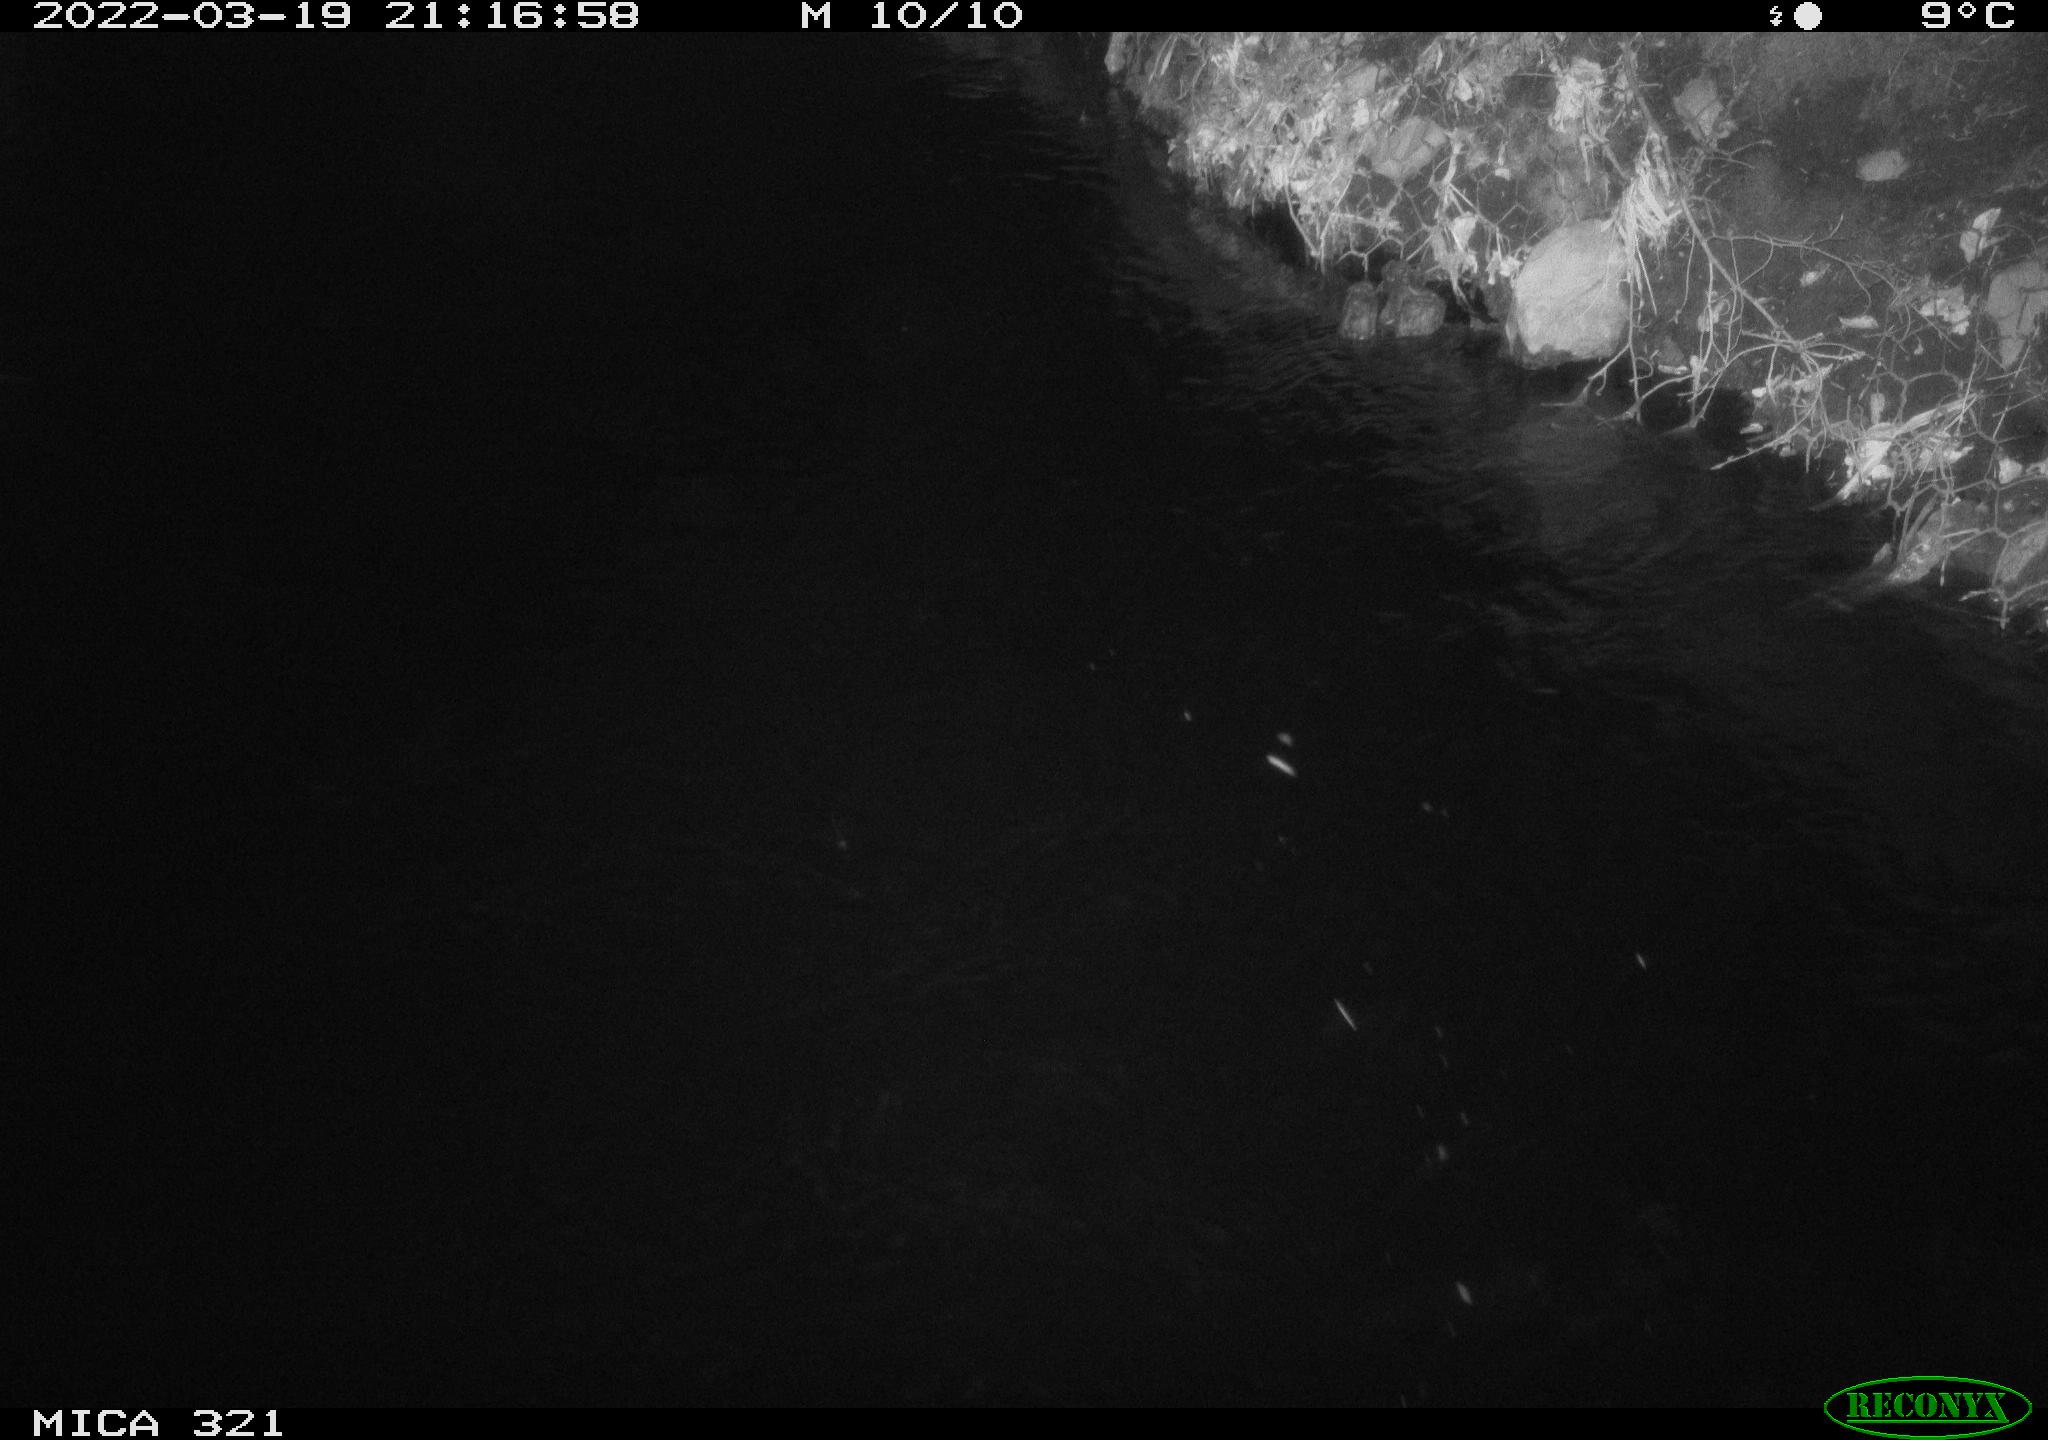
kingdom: Animalia
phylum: Chordata
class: Aves
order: Anseriformes
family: Anatidae
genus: Anas
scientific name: Anas platyrhynchos
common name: Mallard
